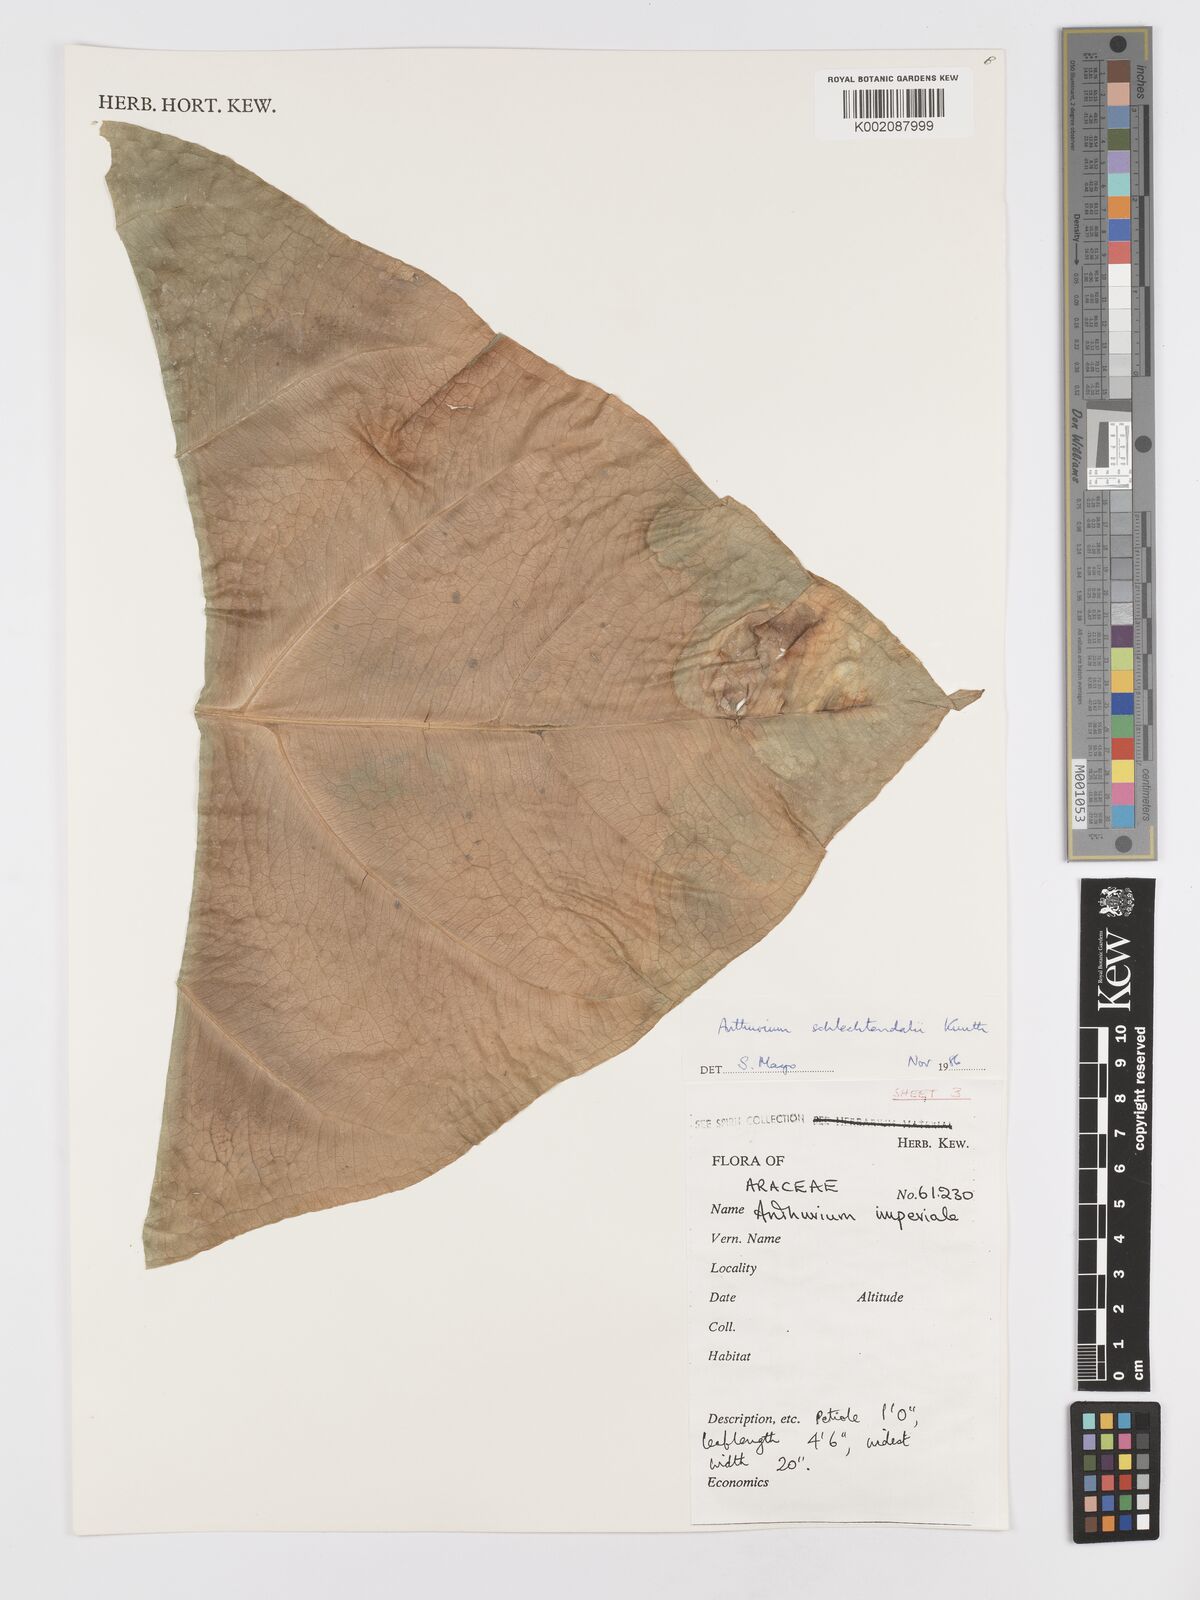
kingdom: Plantae
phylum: Tracheophyta
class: Liliopsida
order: Alismatales
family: Araceae
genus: Anthurium
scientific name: Anthurium schlechtendalii
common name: Laceleaf
